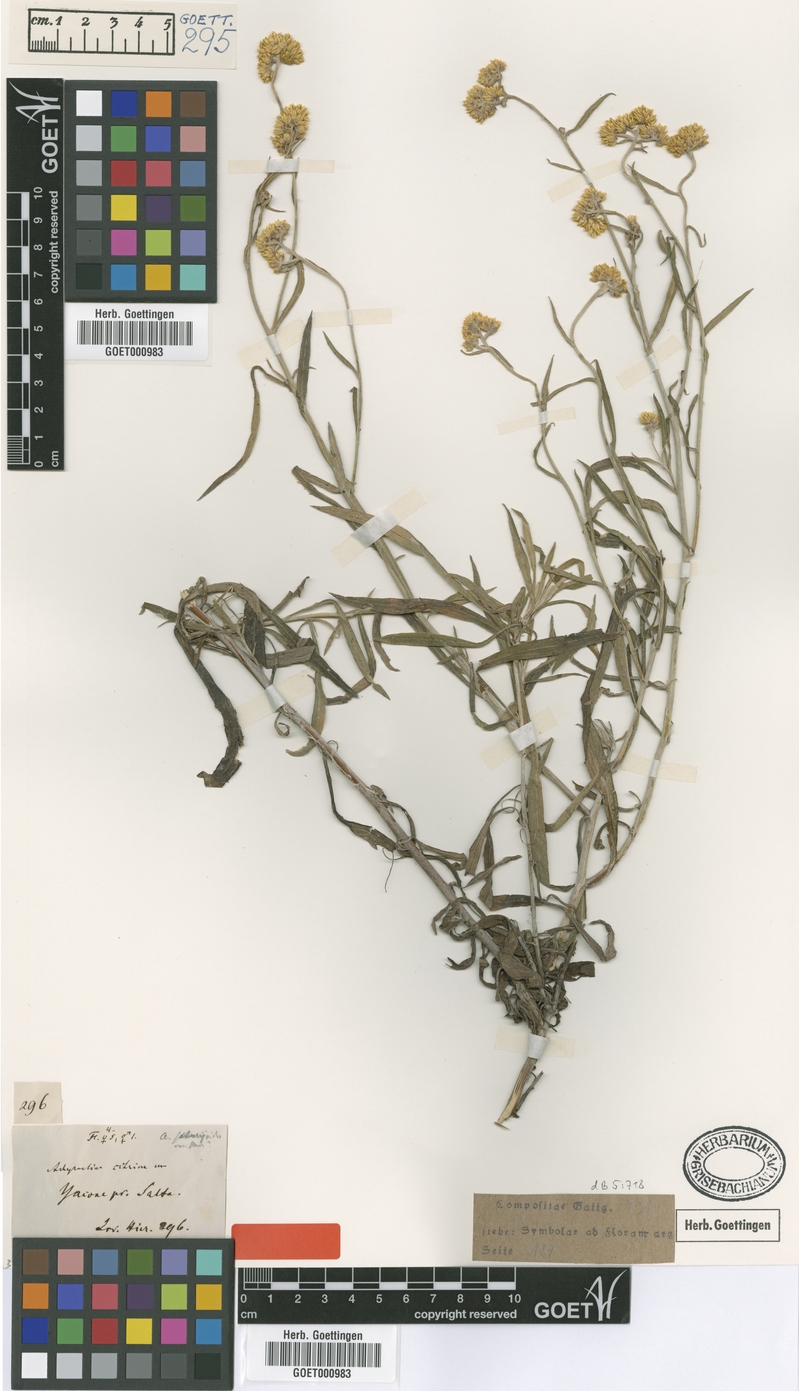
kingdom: Plantae
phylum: Tracheophyta
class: Magnoliopsida
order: Asterales
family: Asteraceae
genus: Achyrocline
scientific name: Achyrocline flaccida
